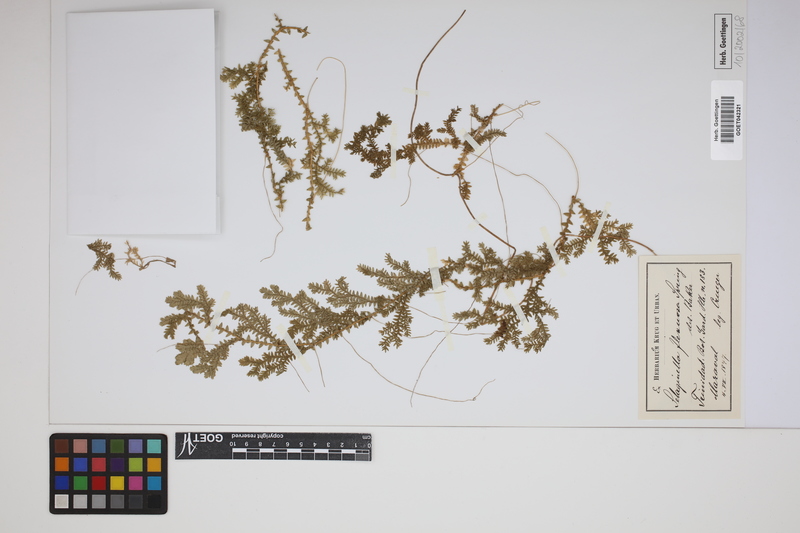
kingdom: Plantae
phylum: Tracheophyta
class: Lycopodiopsida
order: Selaginellales
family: Selaginellaceae
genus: Selaginella
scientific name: Selaginella flexuosa
